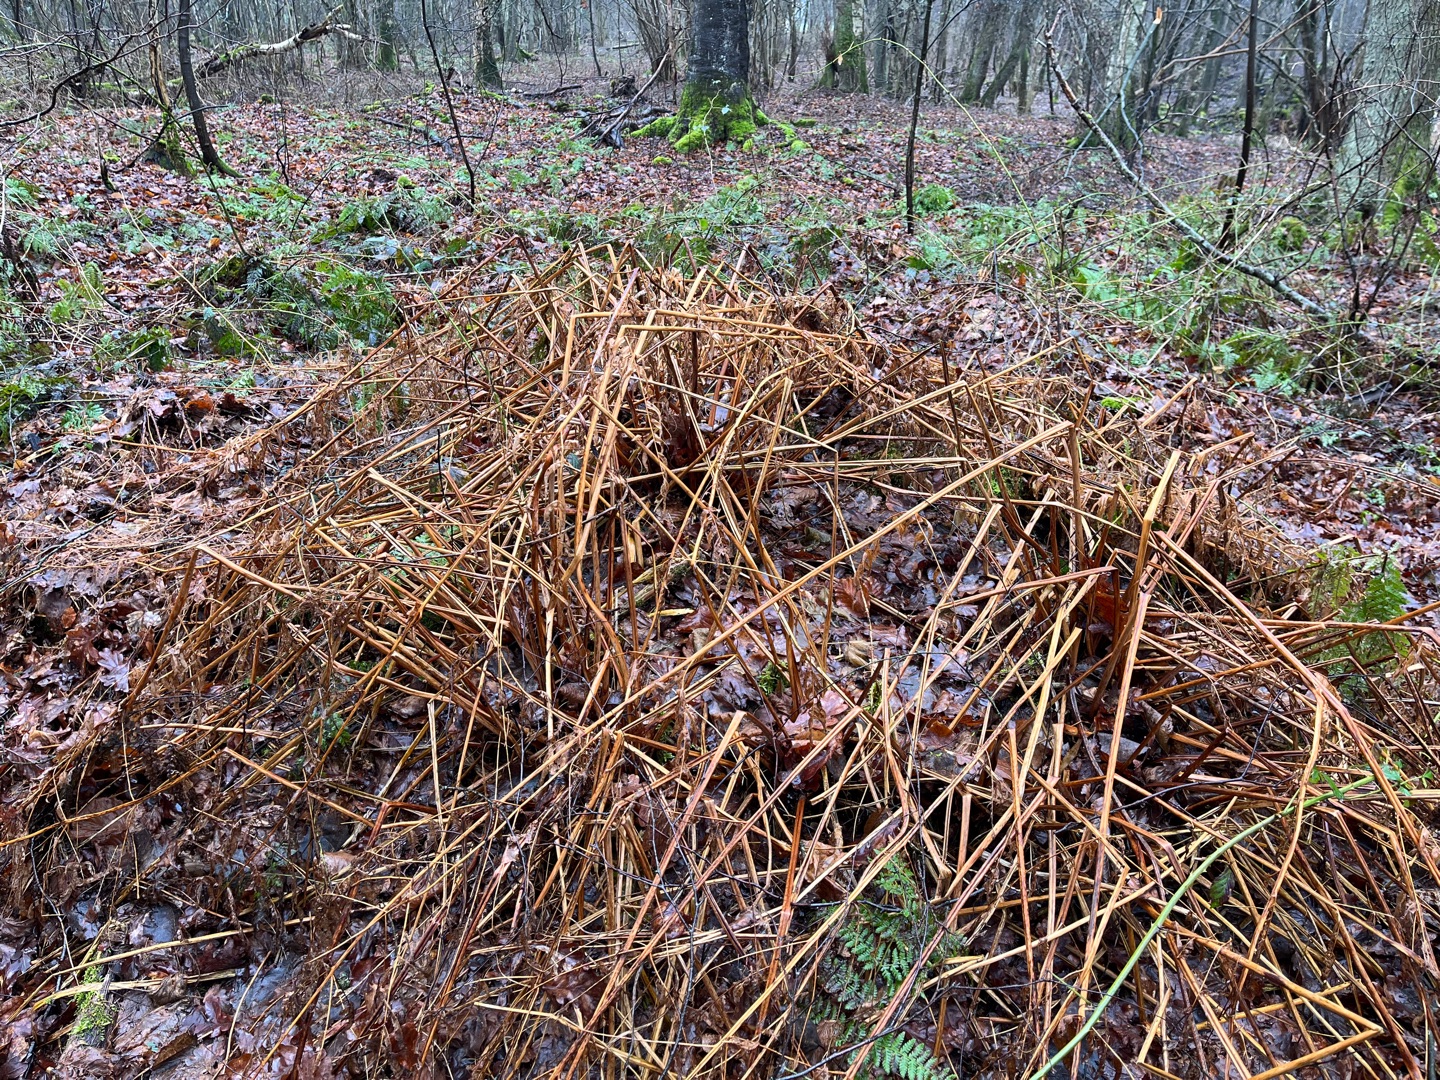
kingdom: Plantae
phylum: Tracheophyta
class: Polypodiopsida
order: Osmundales
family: Osmundaceae
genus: Osmunda
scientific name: Osmunda regalis
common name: Kongebregne
